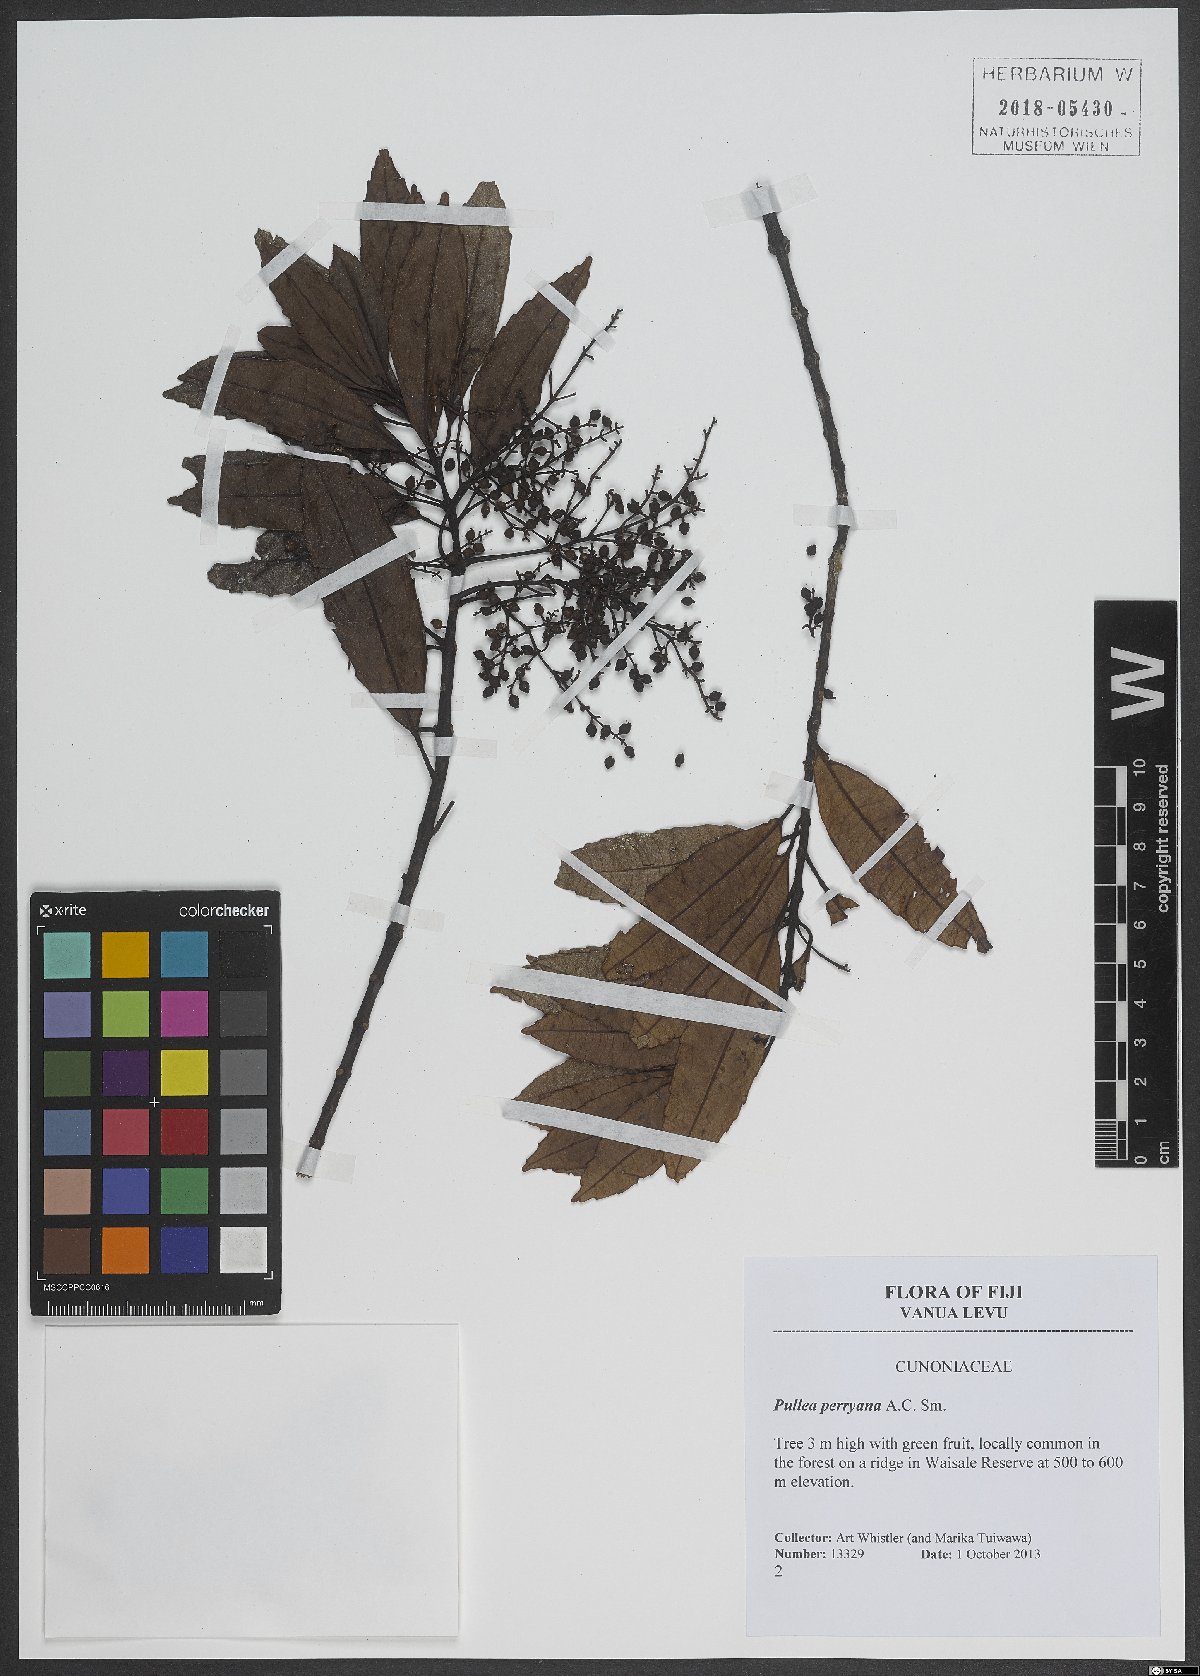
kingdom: Plantae
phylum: Tracheophyta
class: Magnoliopsida
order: Oxalidales
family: Cunoniaceae
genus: Pullea
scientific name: Pullea glabra
